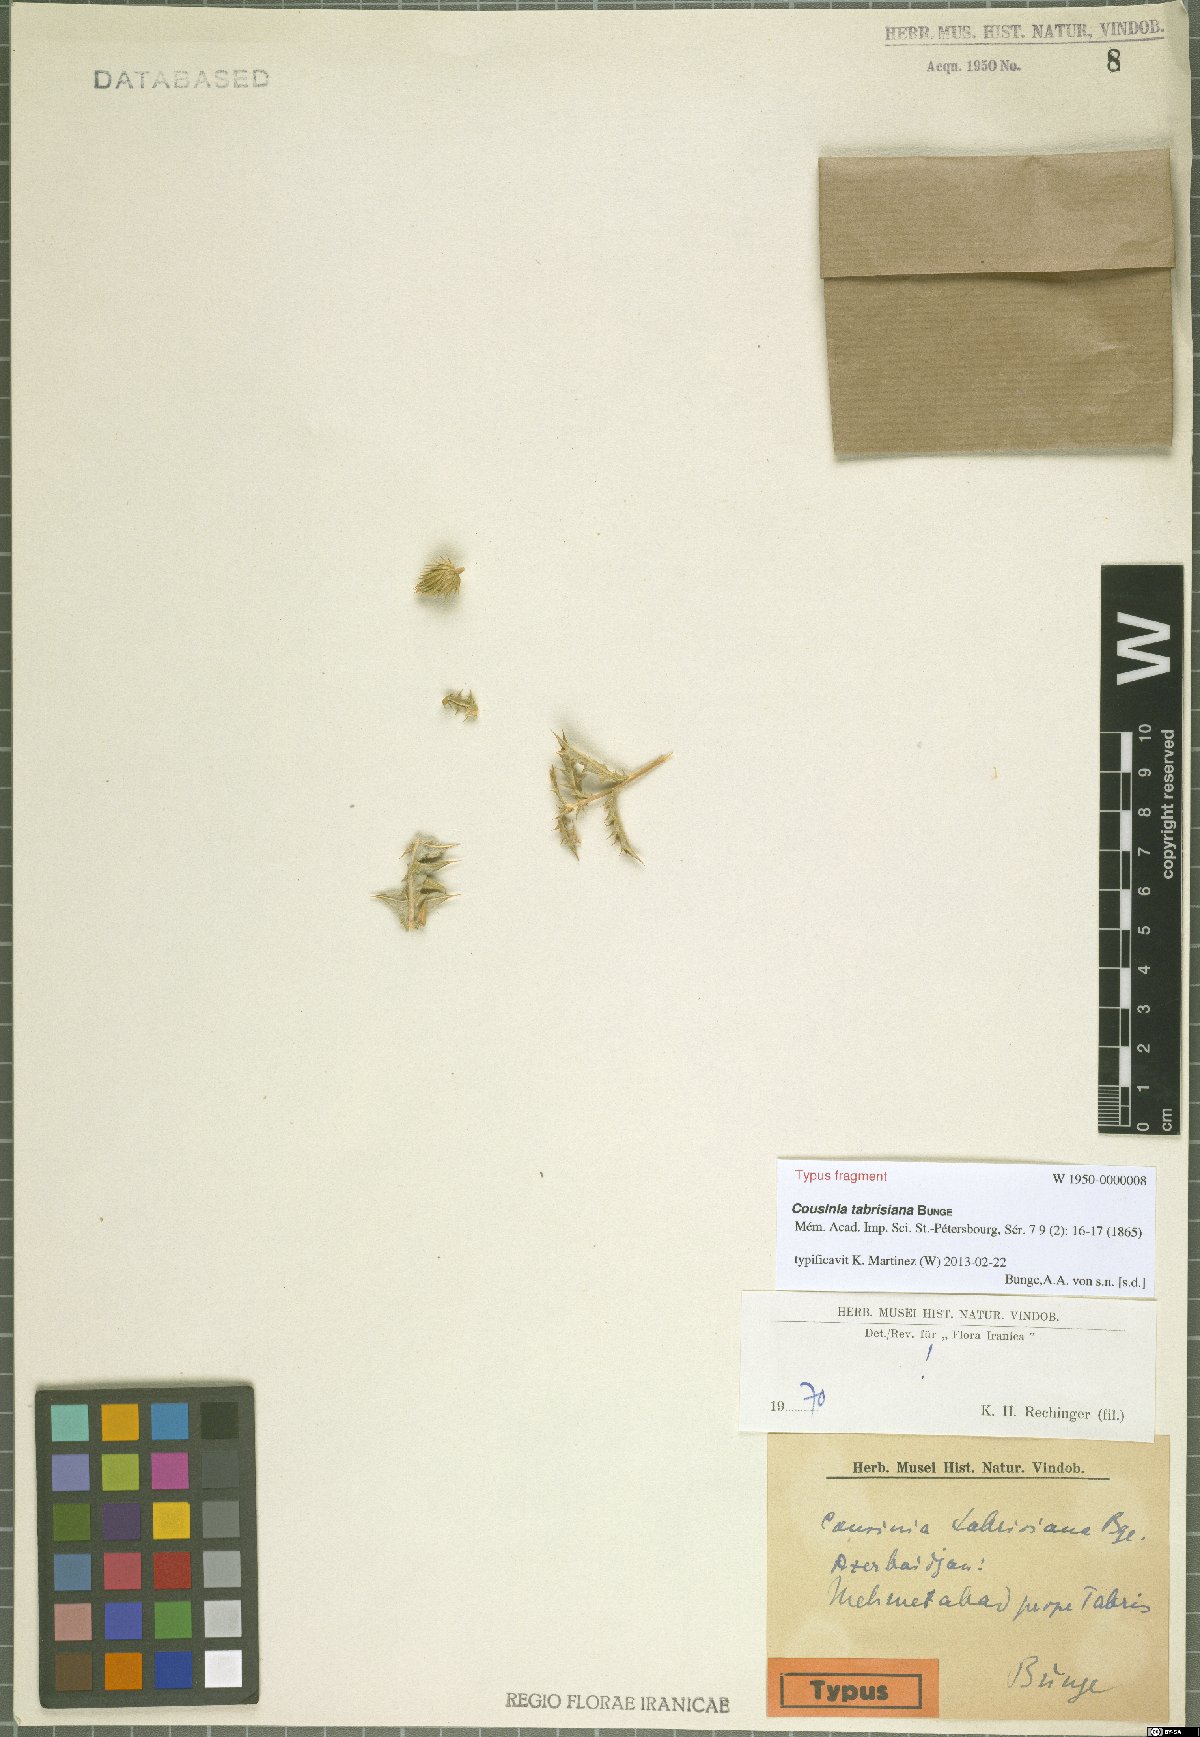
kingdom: Plantae
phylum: Tracheophyta
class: Magnoliopsida
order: Asterales
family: Asteraceae
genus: Cousinia
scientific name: Cousinia tabrisiana
